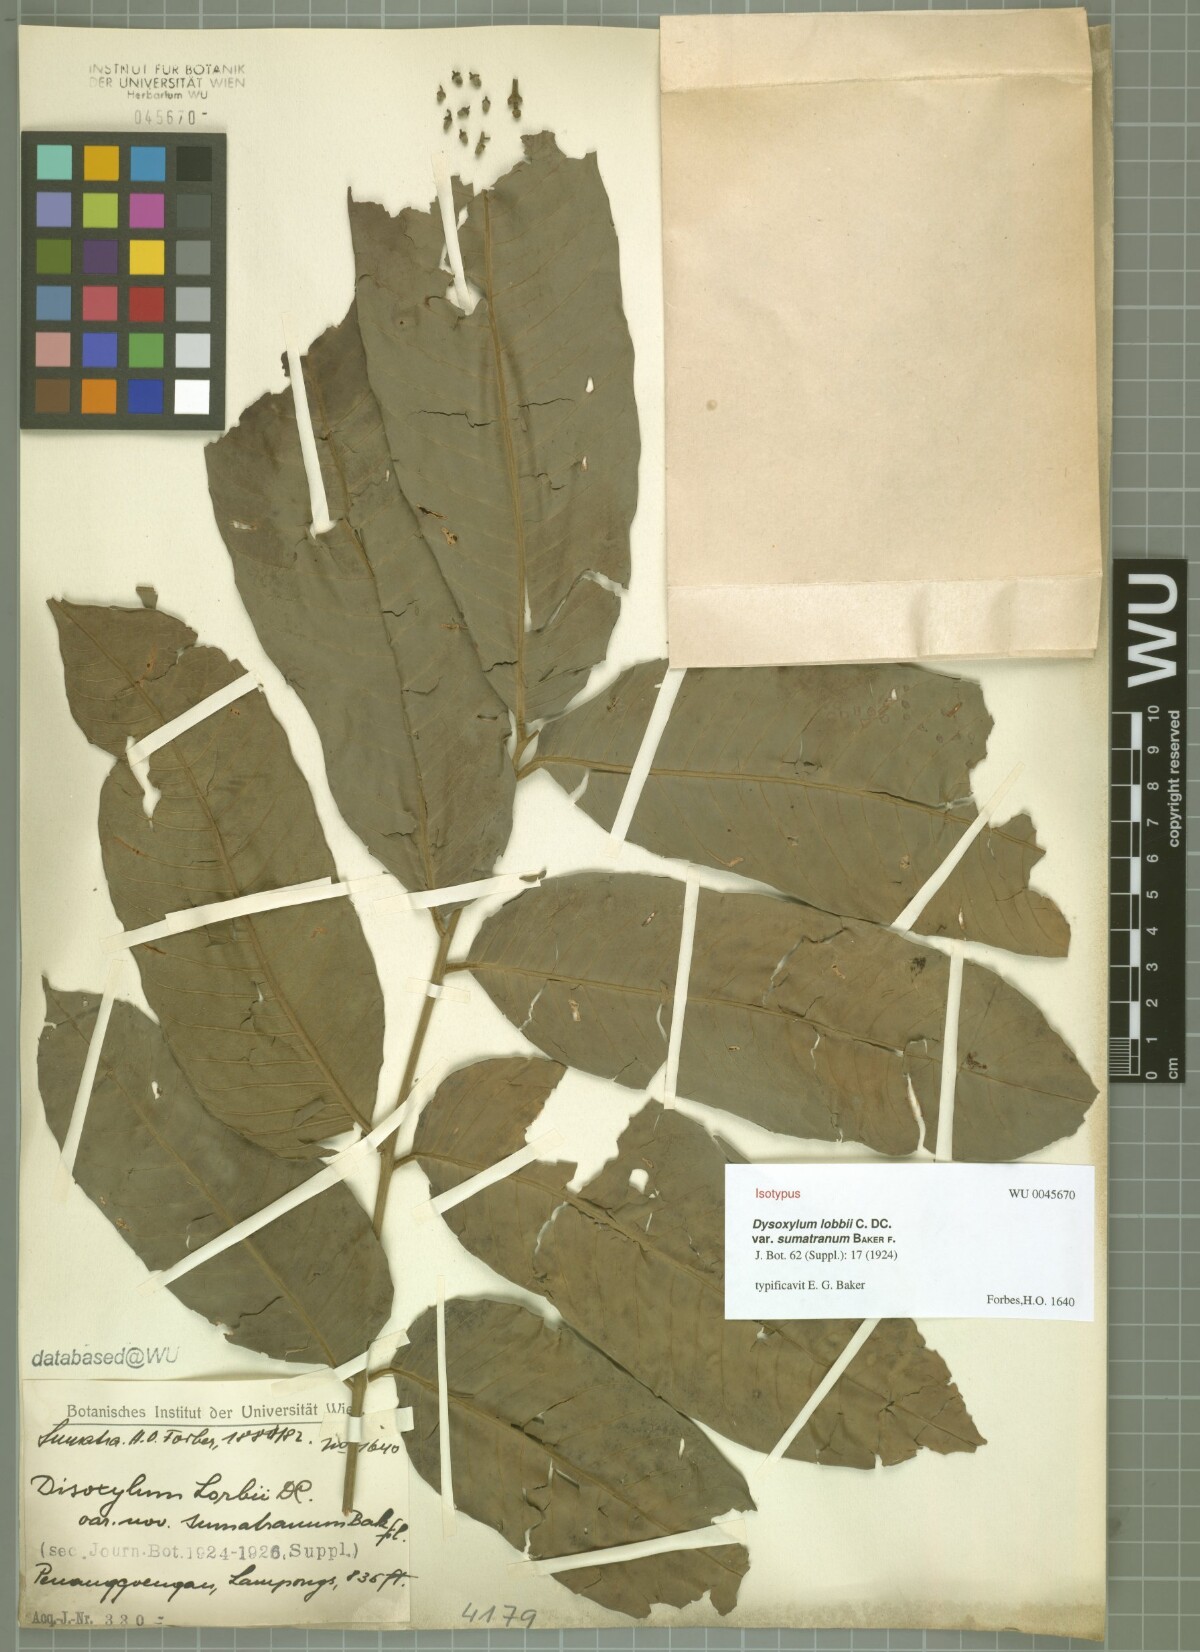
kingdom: Plantae
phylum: Tracheophyta
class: Magnoliopsida
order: Sapindales
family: Meliaceae
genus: Dysoxylum
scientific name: Dysoxylum grande
